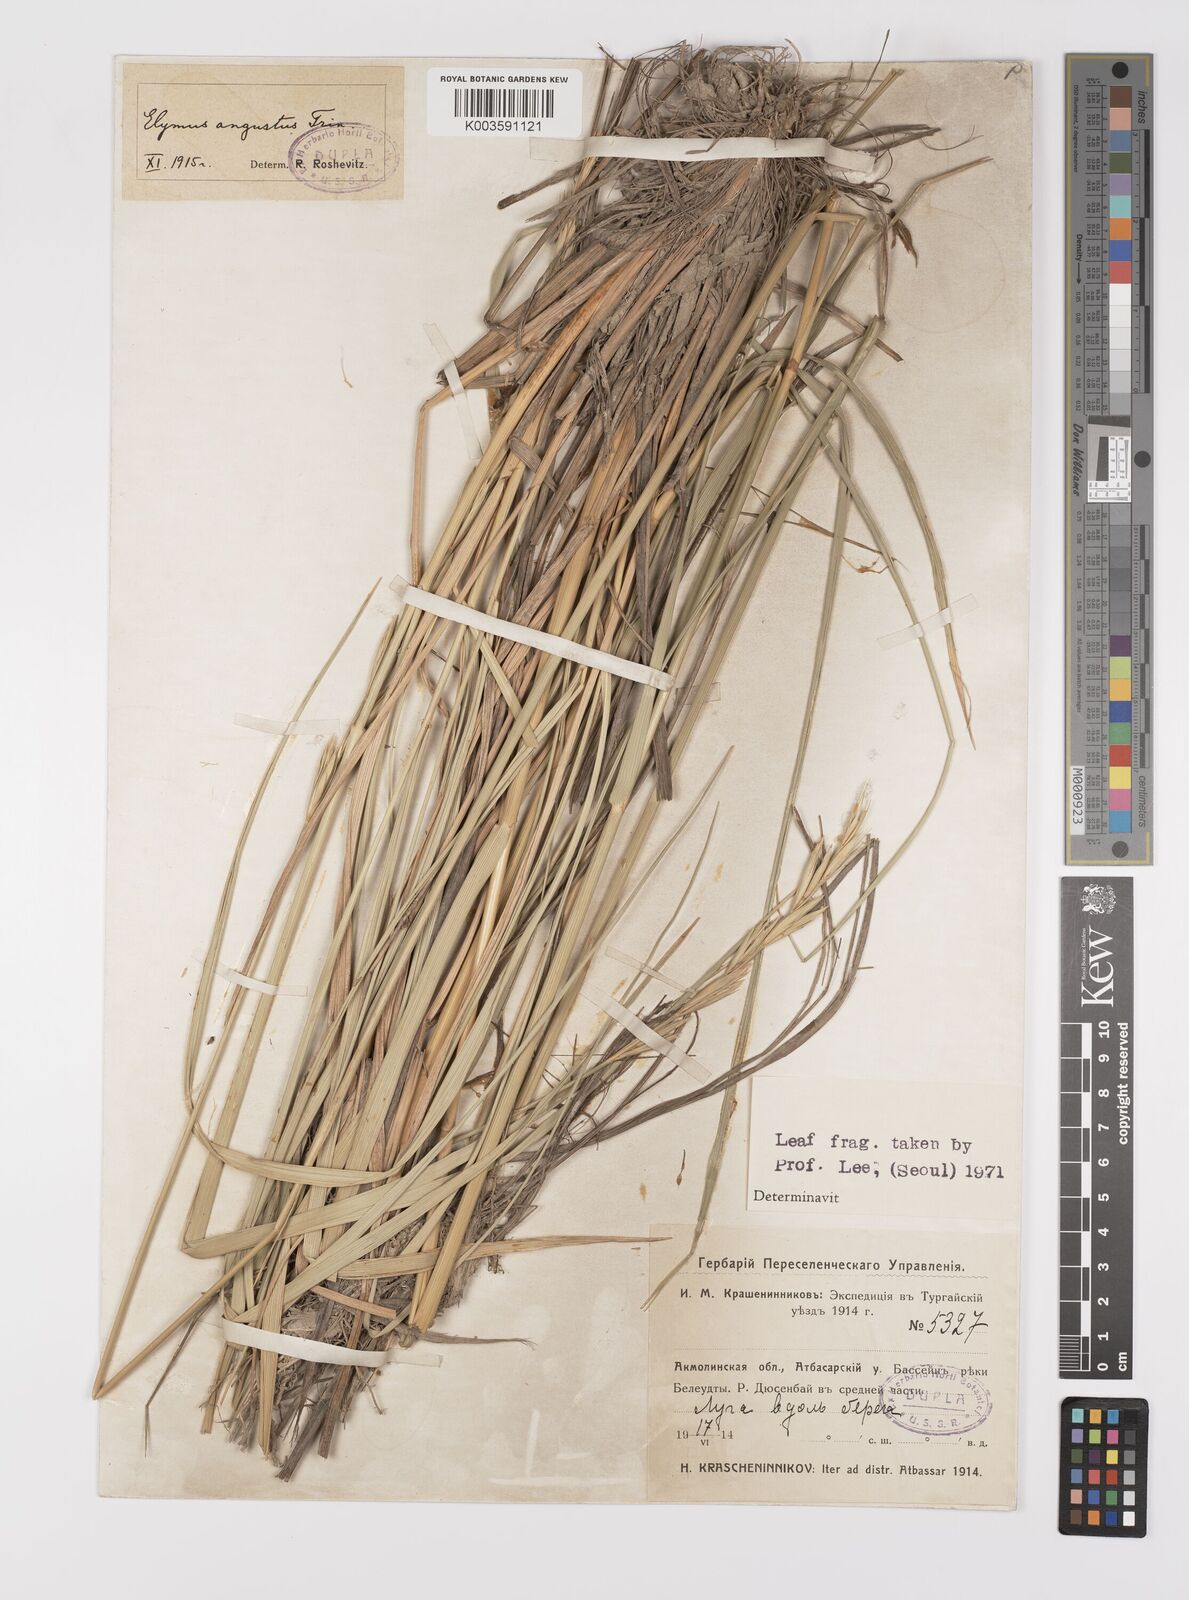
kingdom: Plantae
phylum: Tracheophyta
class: Liliopsida
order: Poales
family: Poaceae
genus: Leymus
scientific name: Leymus angustus
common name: Altai wildrye
